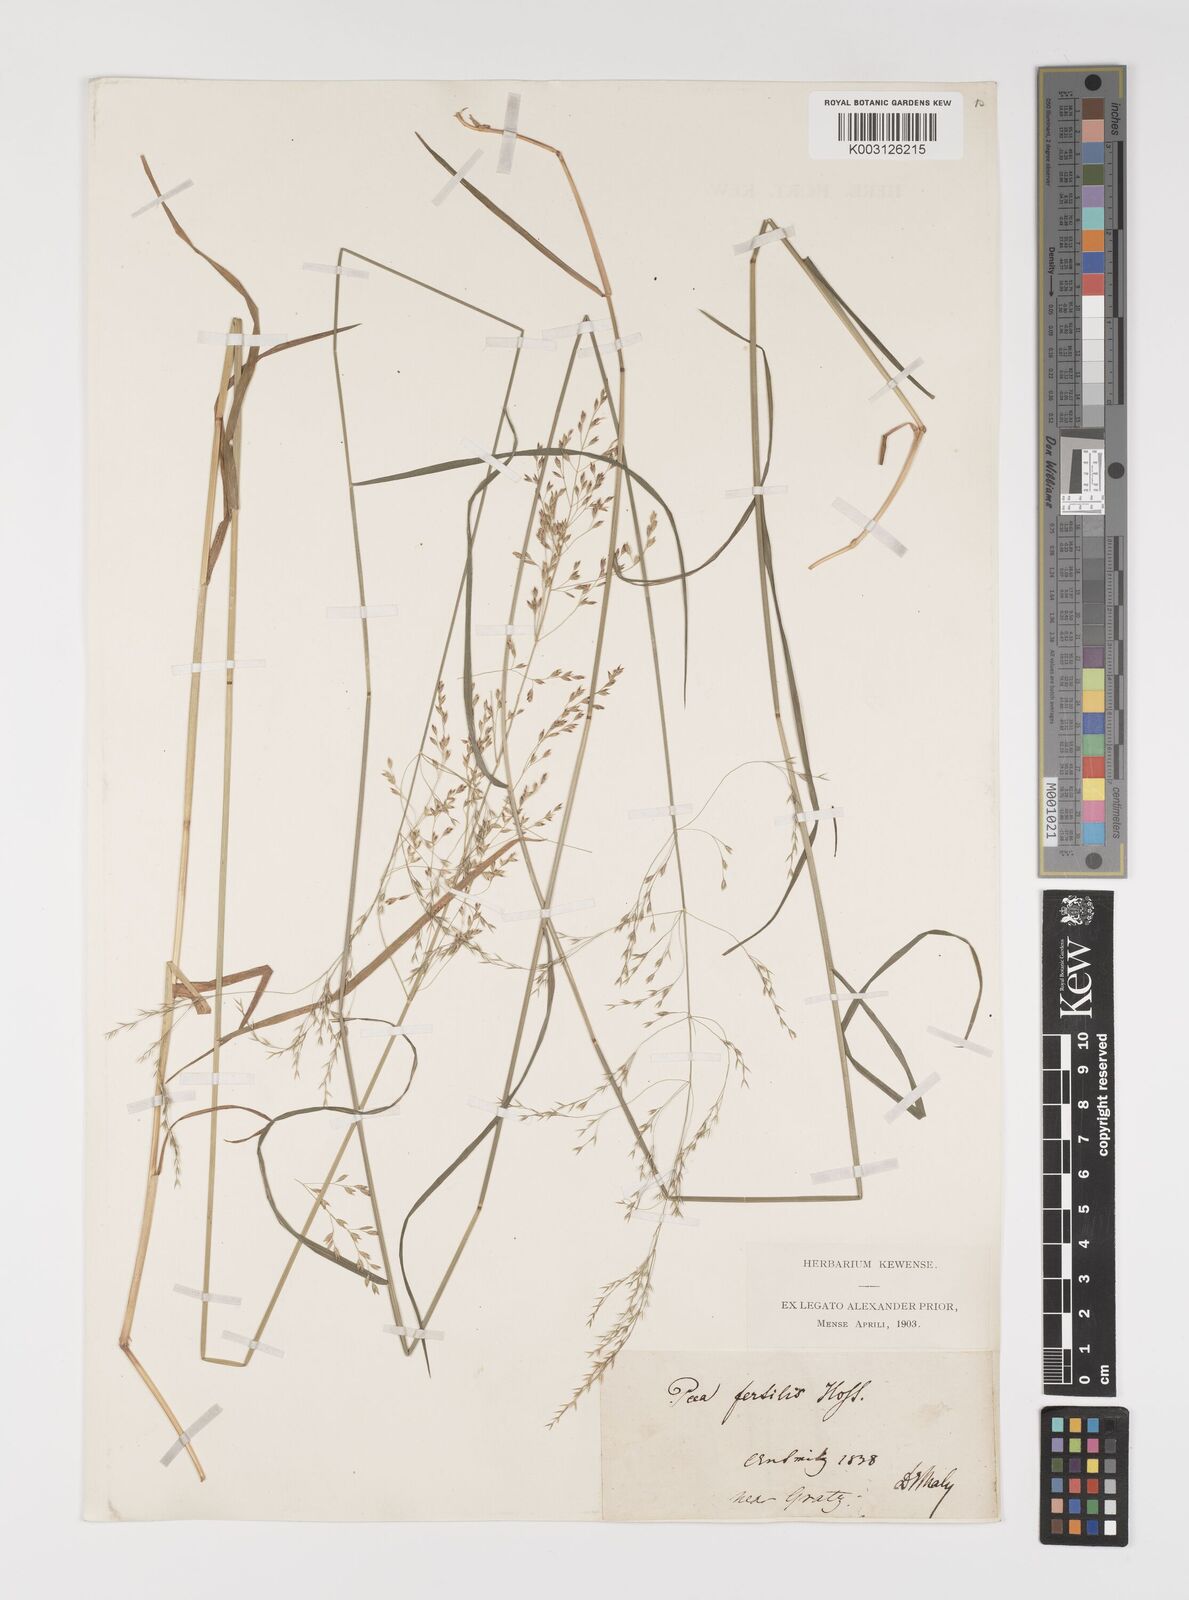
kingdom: Plantae
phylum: Tracheophyta
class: Liliopsida
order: Poales
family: Poaceae
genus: Poa
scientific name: Poa palustris
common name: Swamp meadow-grass
